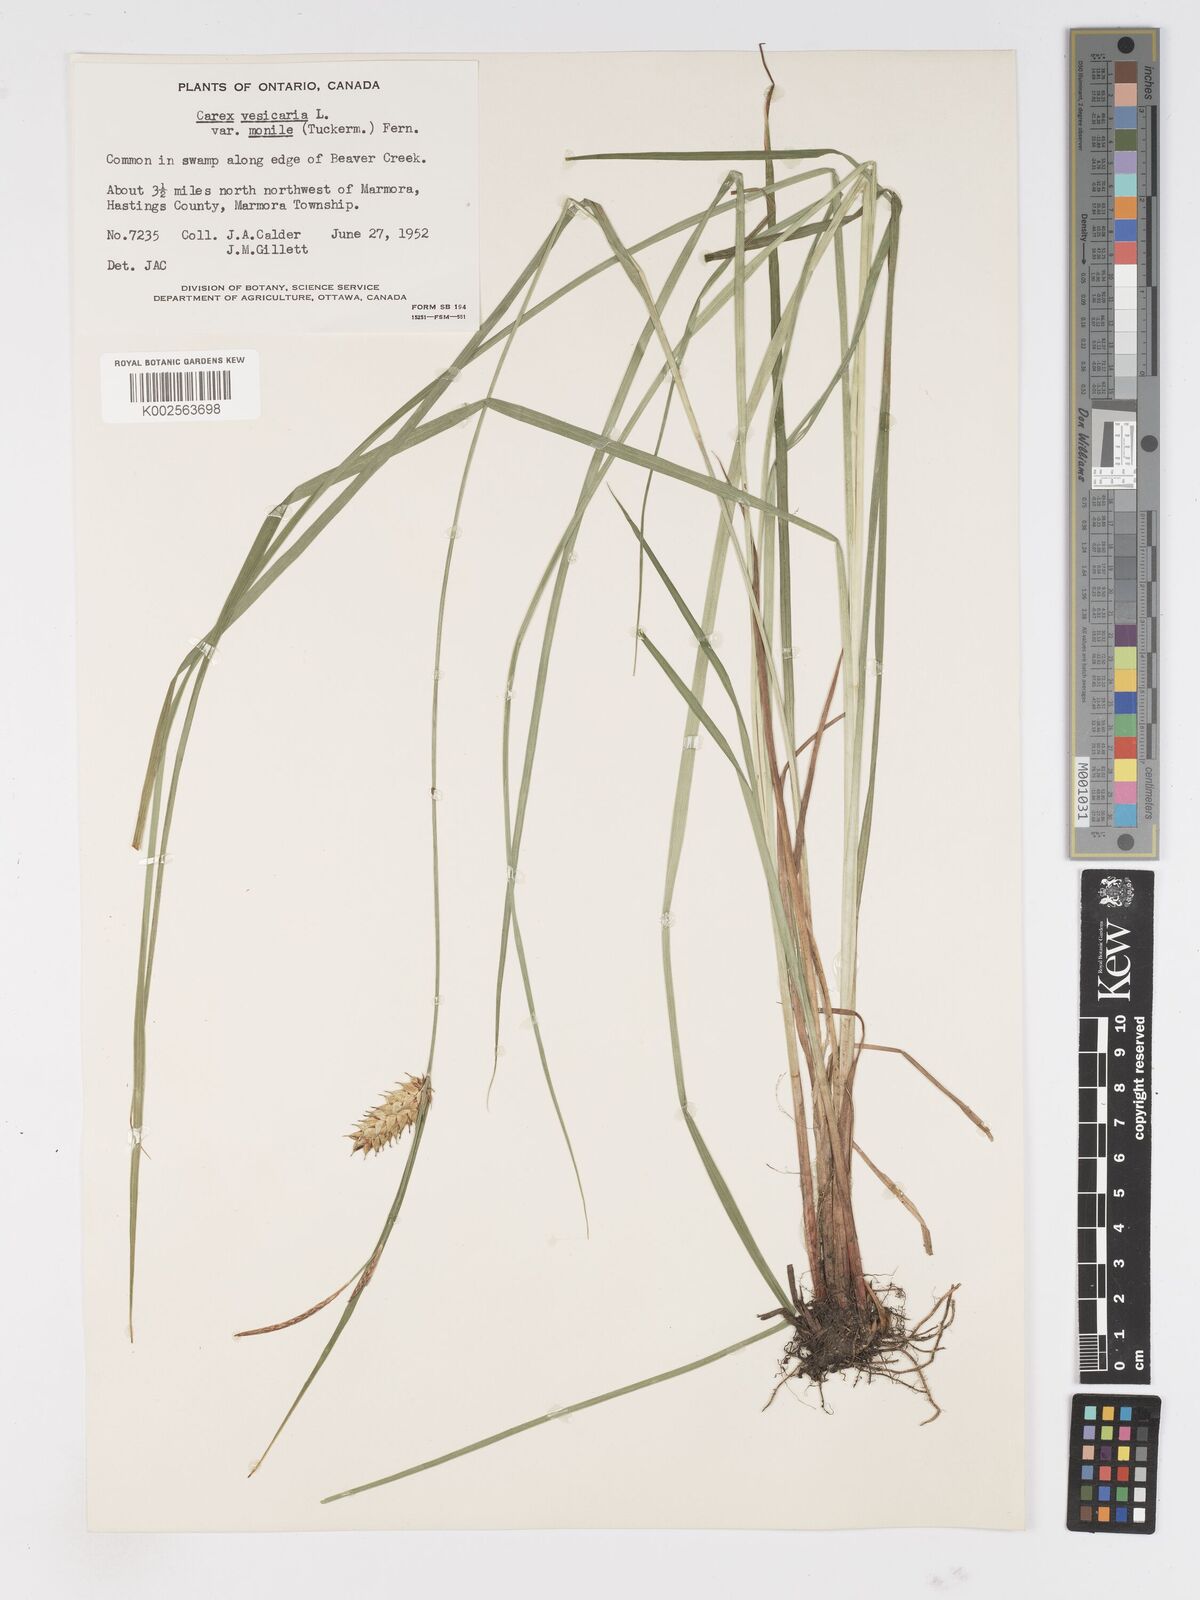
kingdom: Plantae
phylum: Tracheophyta
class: Liliopsida
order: Poales
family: Cyperaceae
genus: Carex
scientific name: Carex vesicaria
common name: Bladder-sedge
